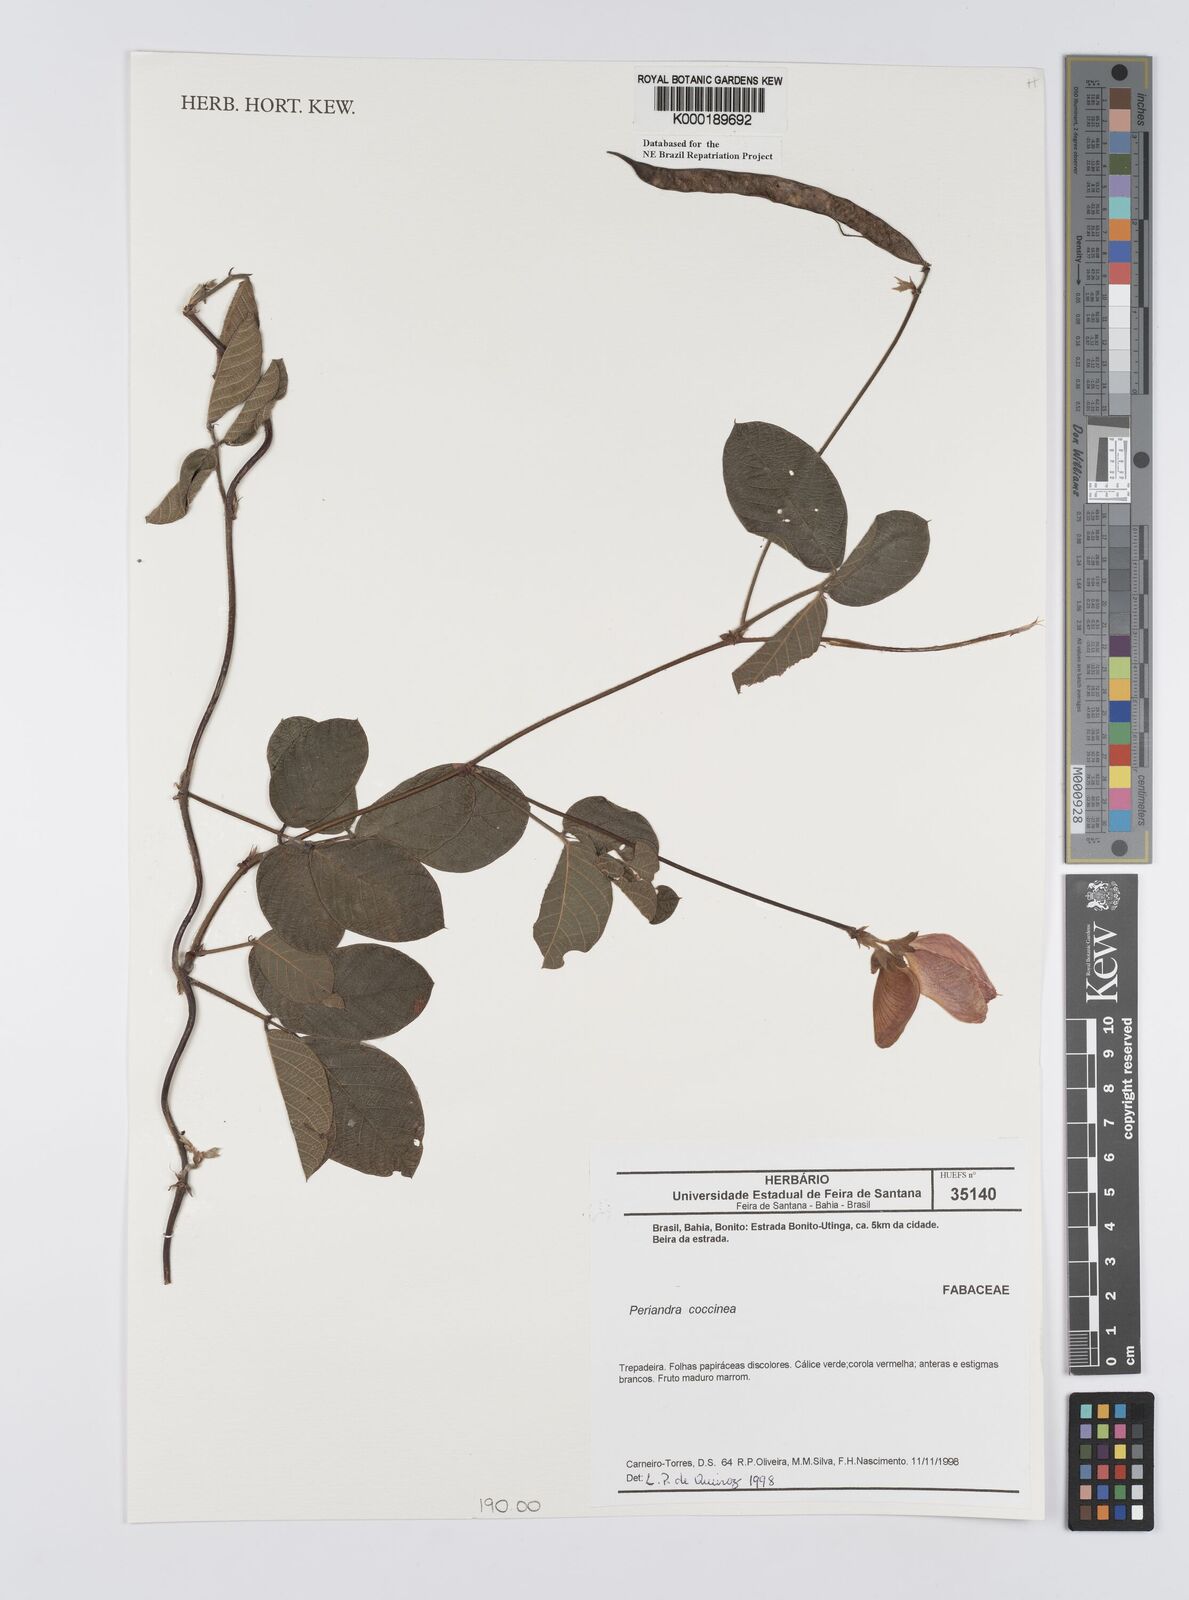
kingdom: Plantae
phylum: Tracheophyta
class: Magnoliopsida
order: Fabales
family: Fabaceae
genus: Periandra
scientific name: Periandra coccinea
